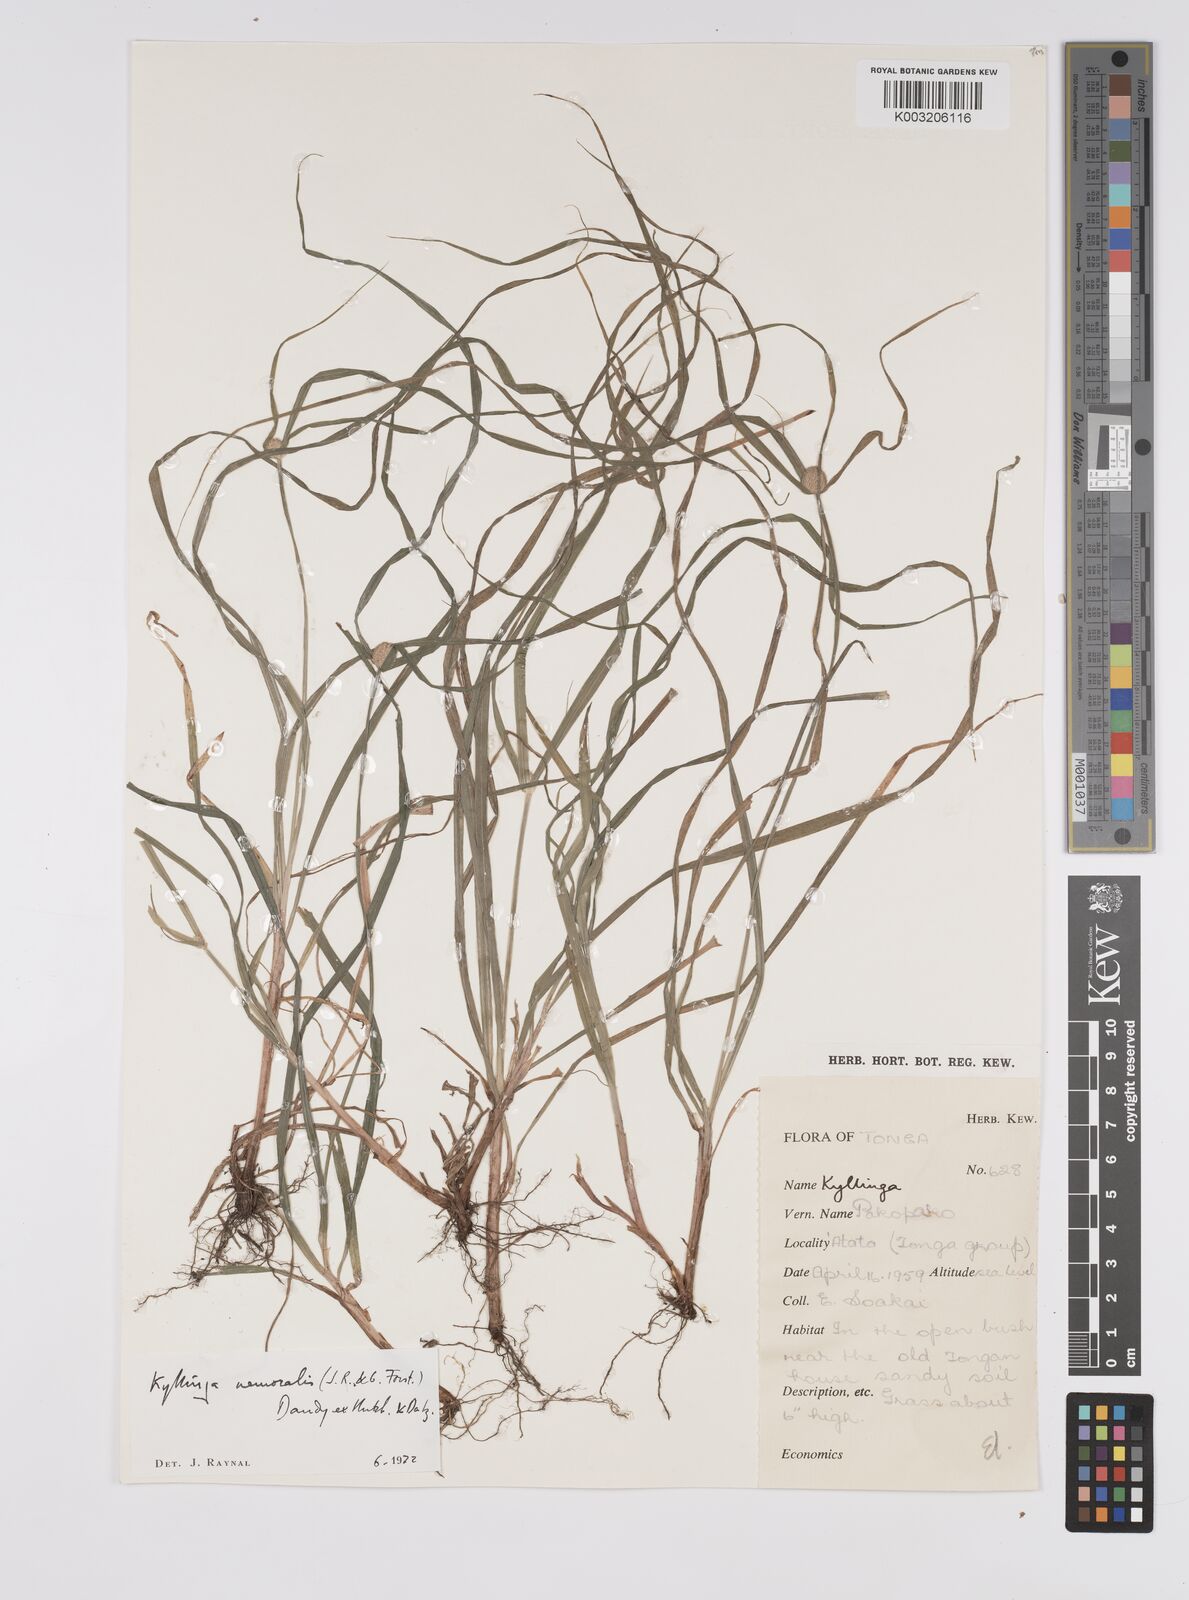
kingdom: Plantae
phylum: Tracheophyta
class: Liliopsida
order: Poales
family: Cyperaceae
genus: Cyperus
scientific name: Cyperus nemoralis
